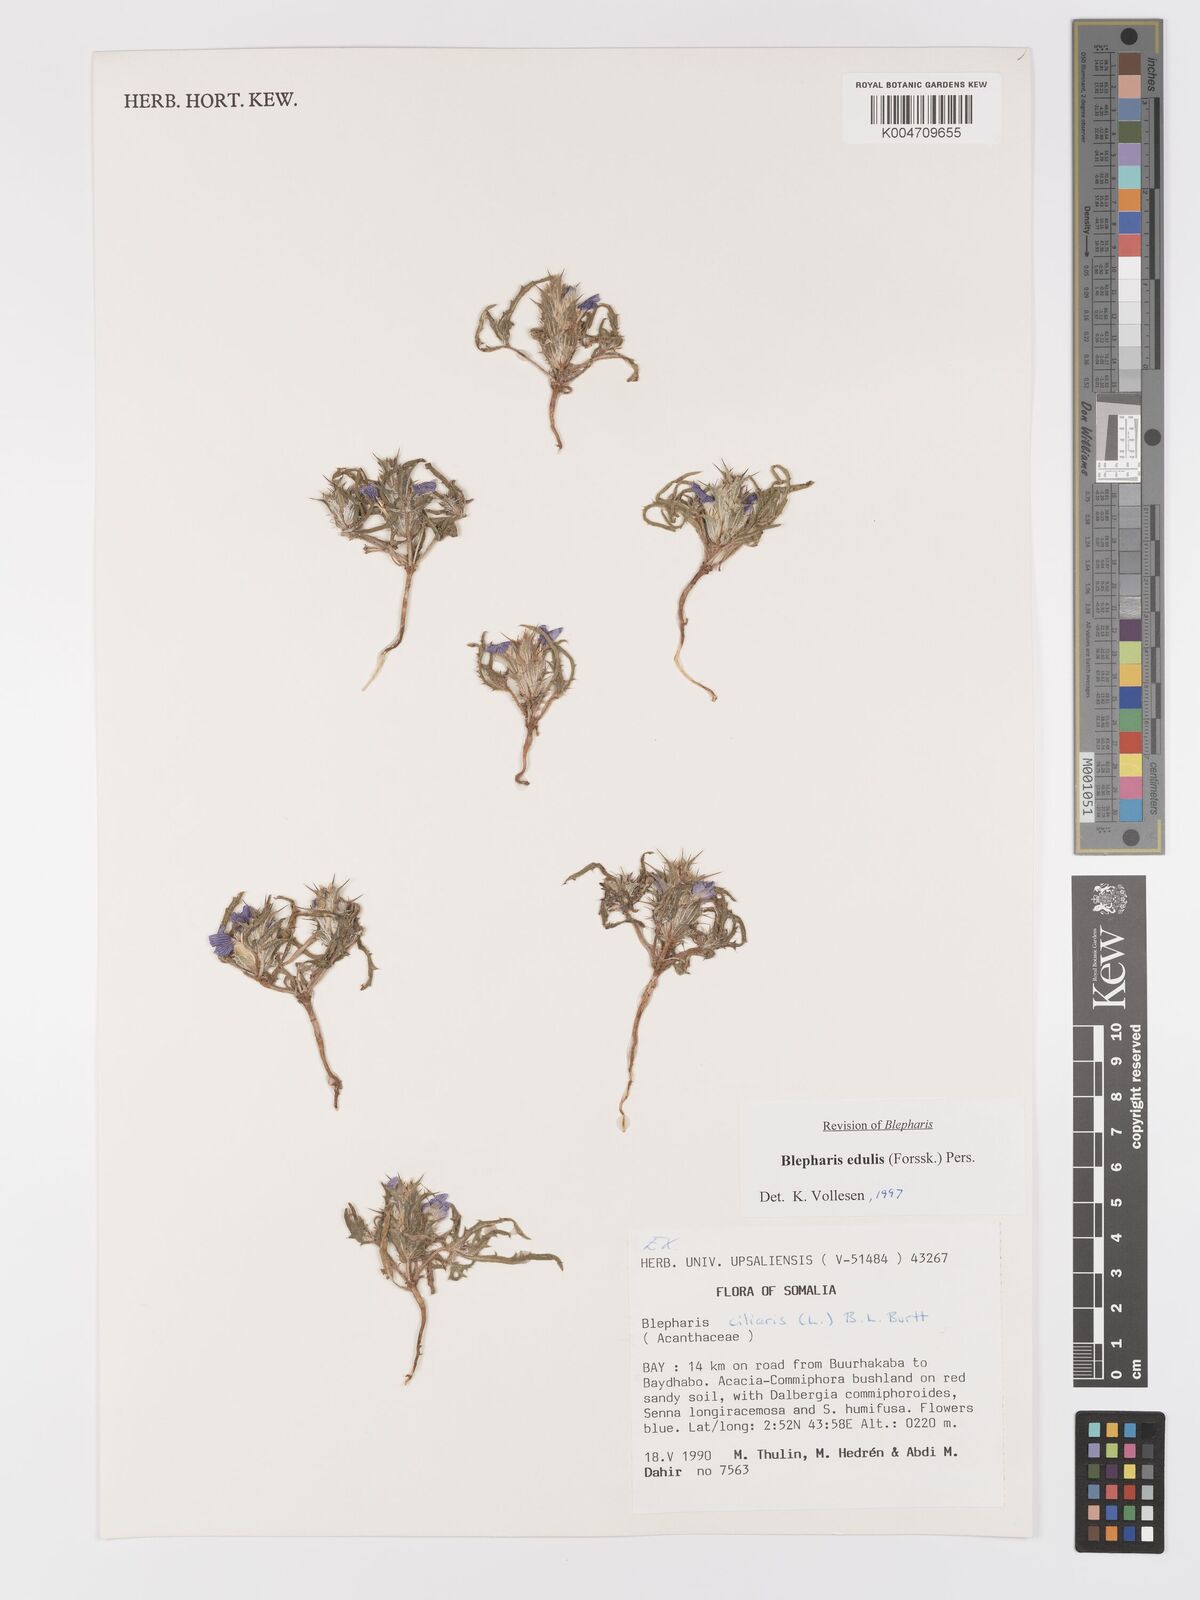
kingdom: Plantae
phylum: Tracheophyta
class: Magnoliopsida
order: Lamiales
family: Acanthaceae
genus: Blepharis
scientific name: Blepharis edulis
